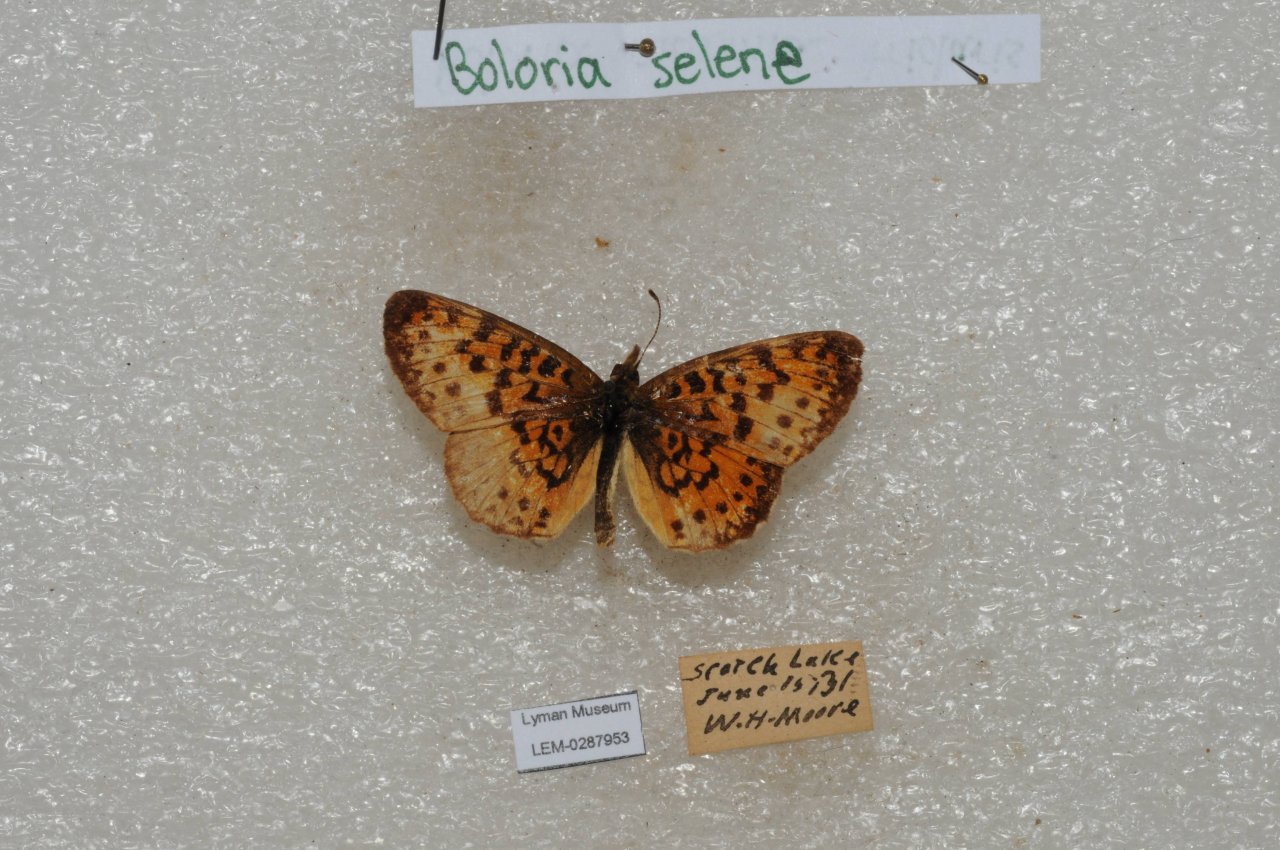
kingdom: Animalia
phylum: Arthropoda
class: Insecta
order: Lepidoptera
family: Nymphalidae
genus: Boloria
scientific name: Boloria selene
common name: Silver-bordered Fritillary
